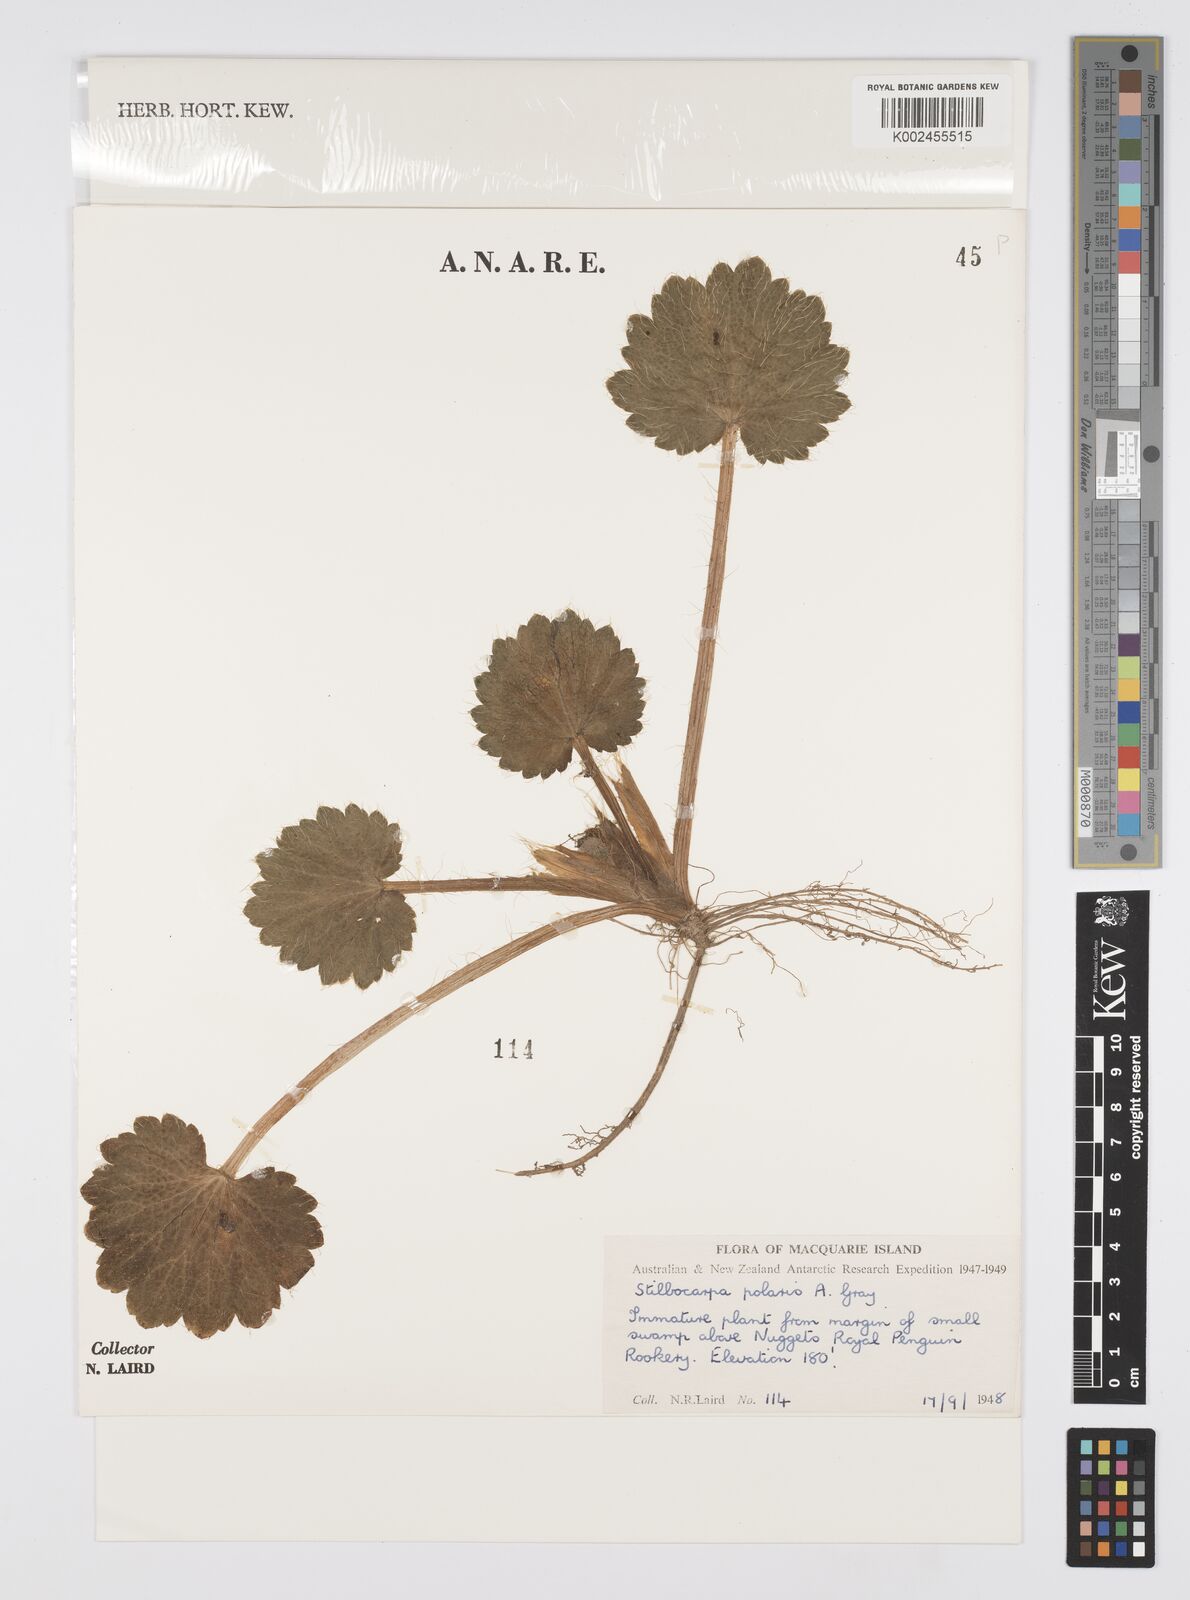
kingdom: Plantae
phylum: Tracheophyta
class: Magnoliopsida
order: Apiales
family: Araliaceae
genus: Stilbocarpa
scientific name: Stilbocarpa
